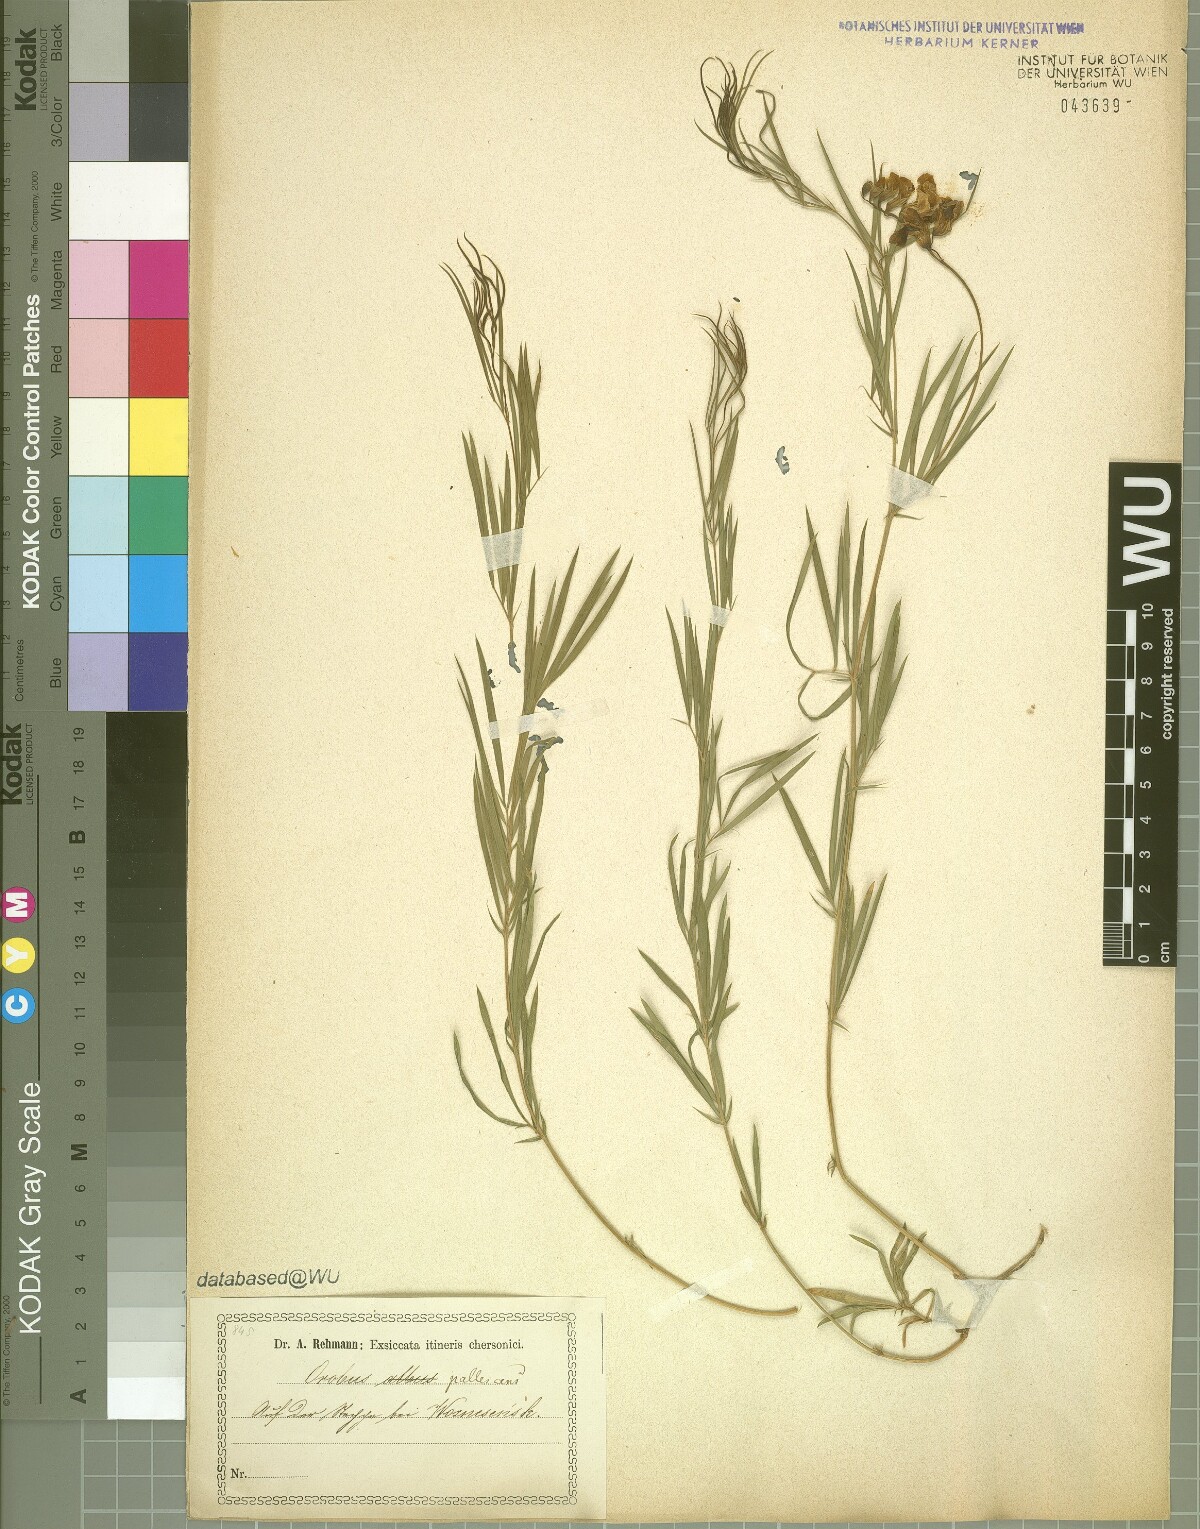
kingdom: Plantae
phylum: Tracheophyta
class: Magnoliopsida
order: Fabales
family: Fabaceae
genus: Lathyrus
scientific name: Lathyrus pallescens
